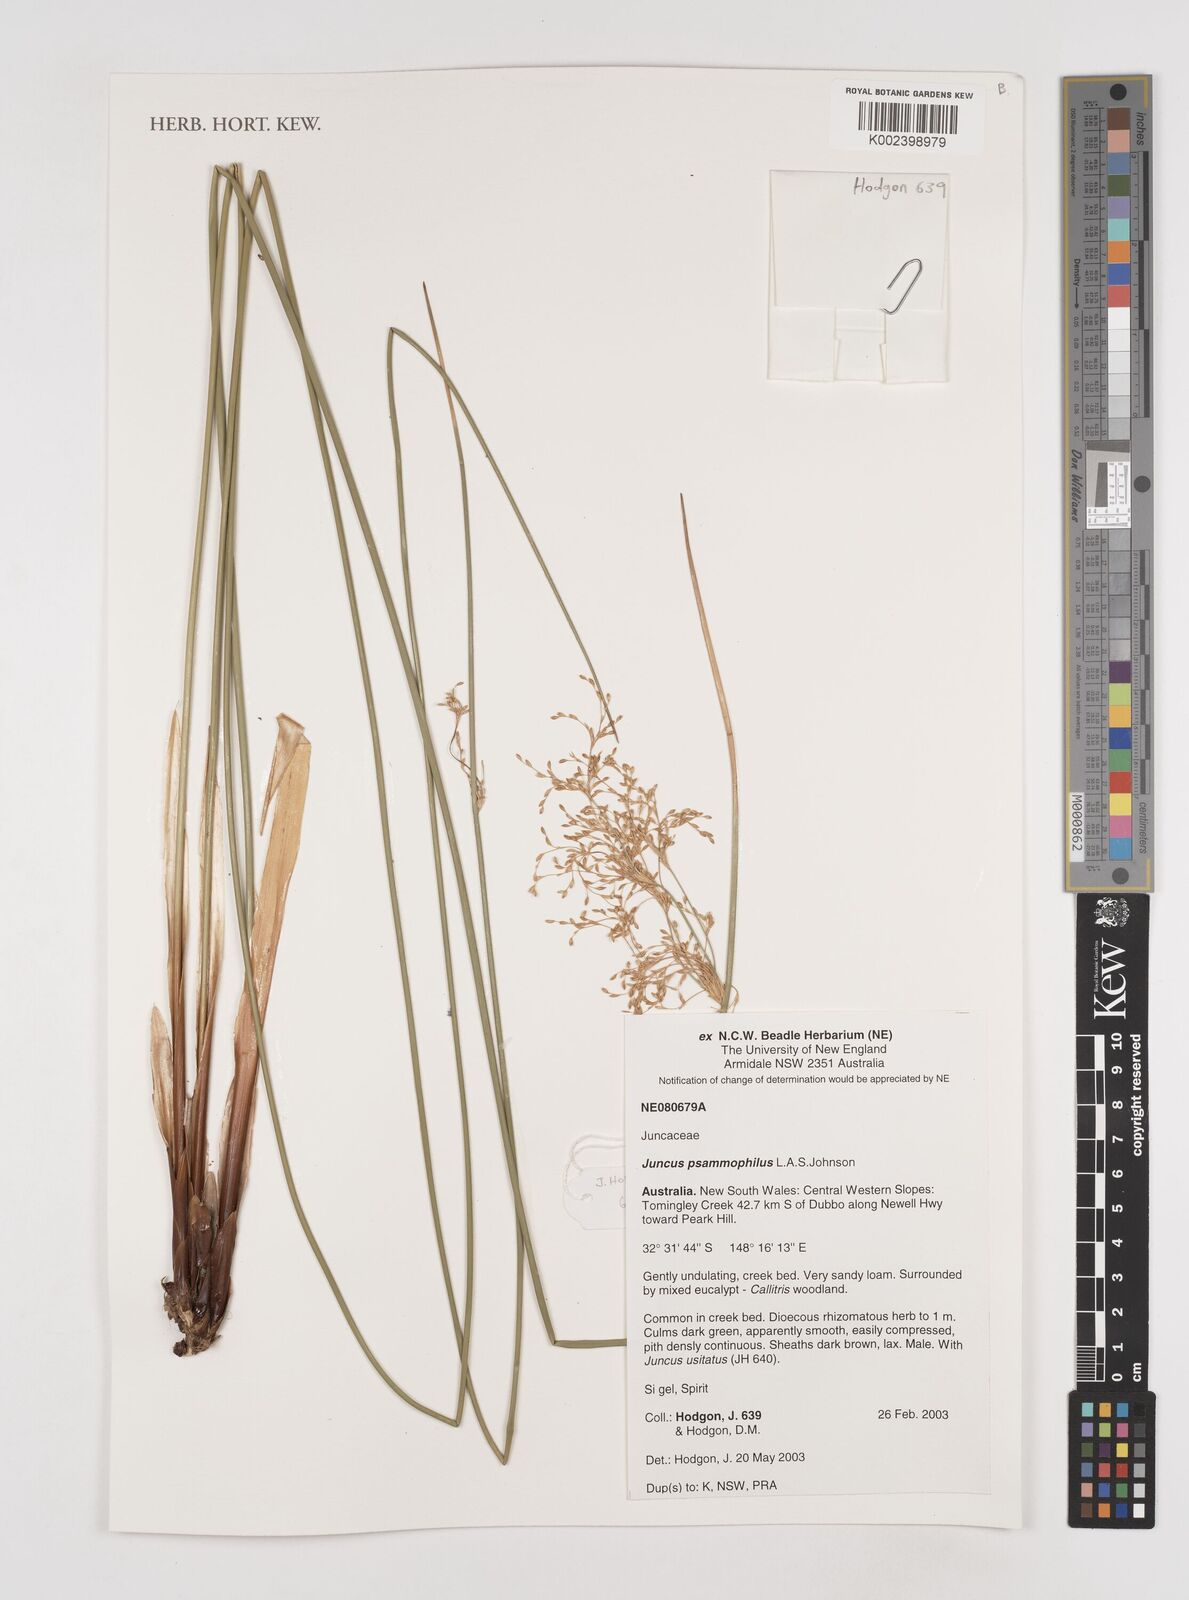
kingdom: Plantae
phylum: Tracheophyta
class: Liliopsida
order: Poales
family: Juncaceae
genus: Juncus
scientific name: Juncus psammophilus
